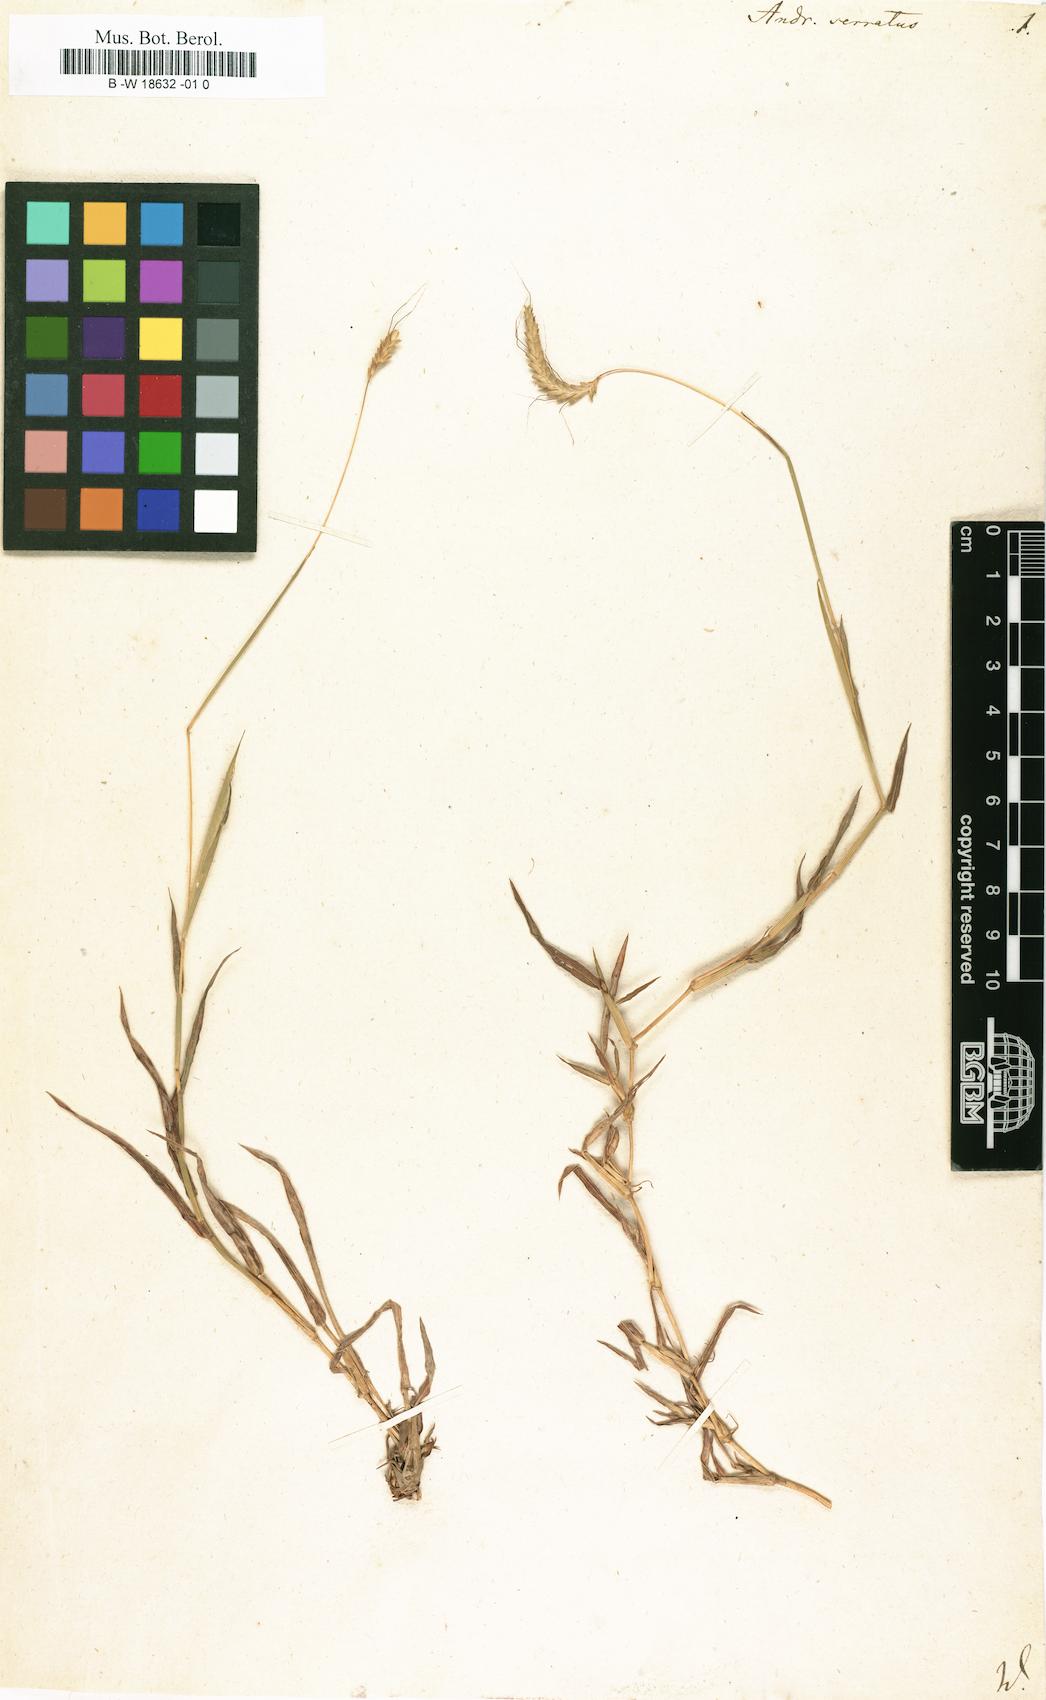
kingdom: Plantae
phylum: Tracheophyta
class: Liliopsida
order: Poales
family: Poaceae
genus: Andropogon
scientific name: Andropogon serratus
